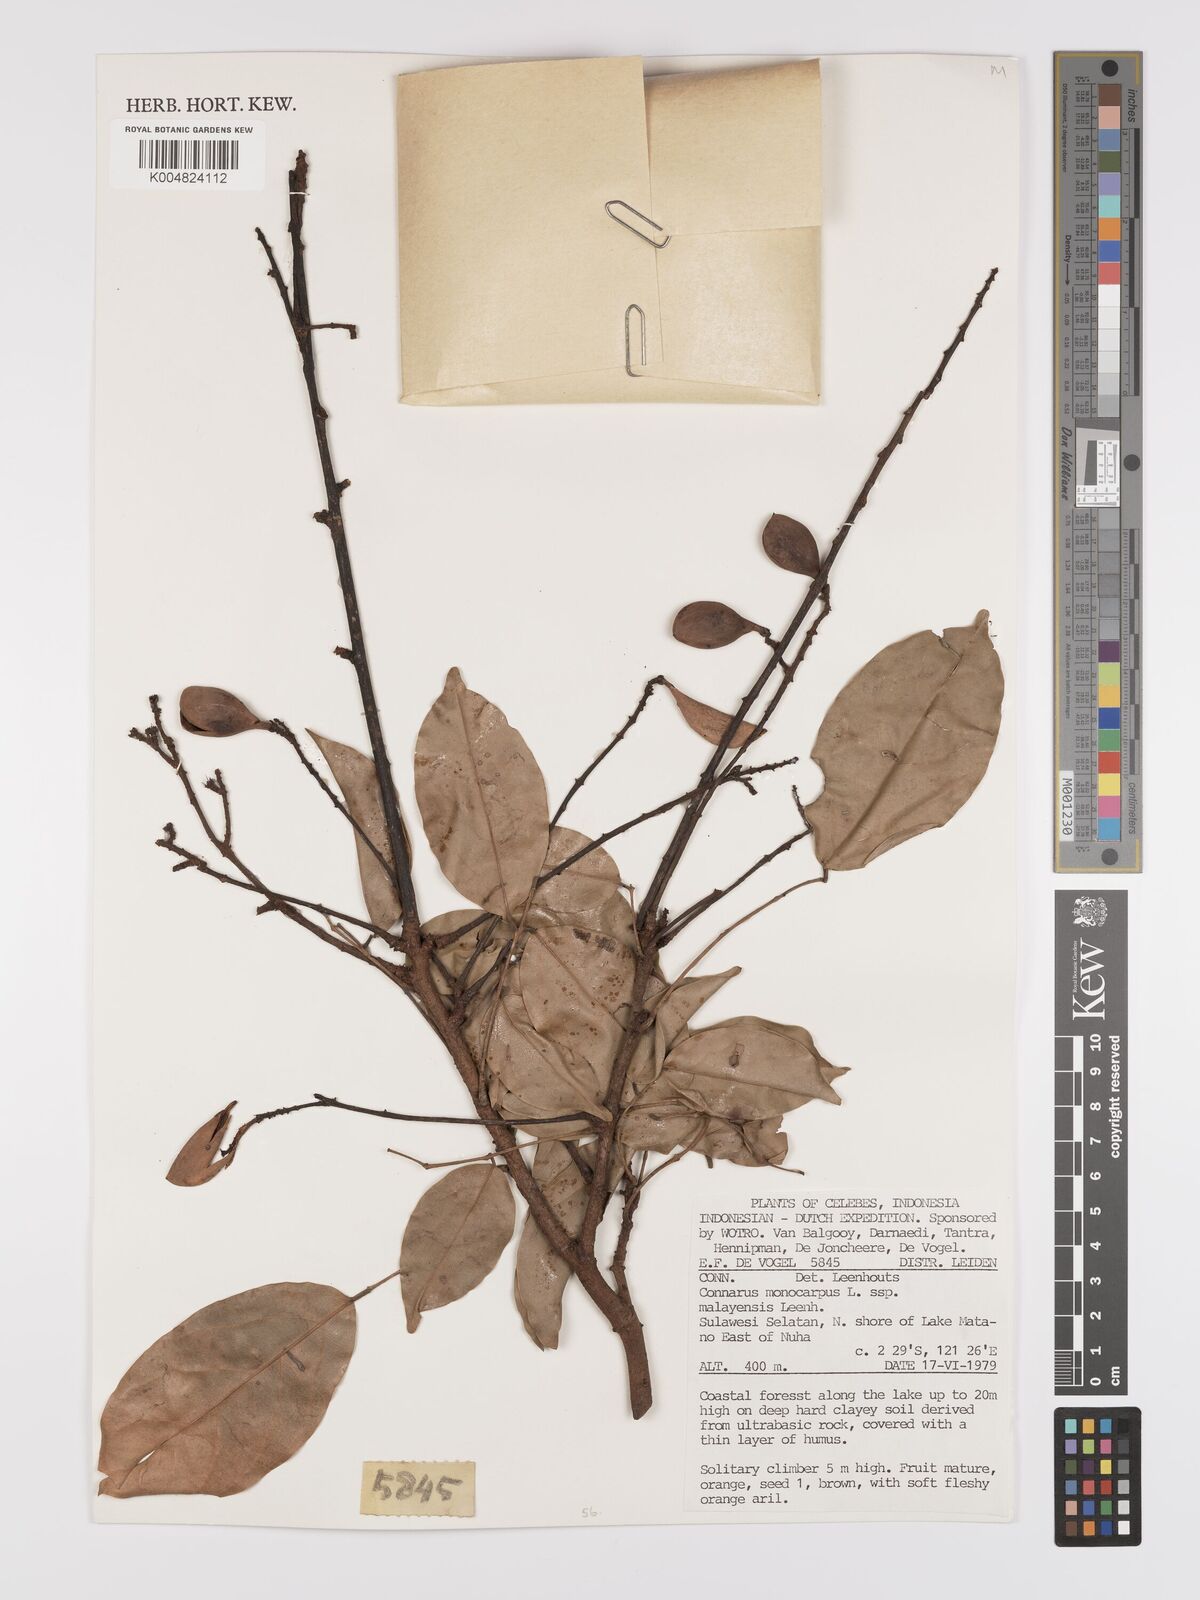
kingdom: Plantae
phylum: Tracheophyta
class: Magnoliopsida
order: Oxalidales
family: Connaraceae
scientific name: Connaraceae
